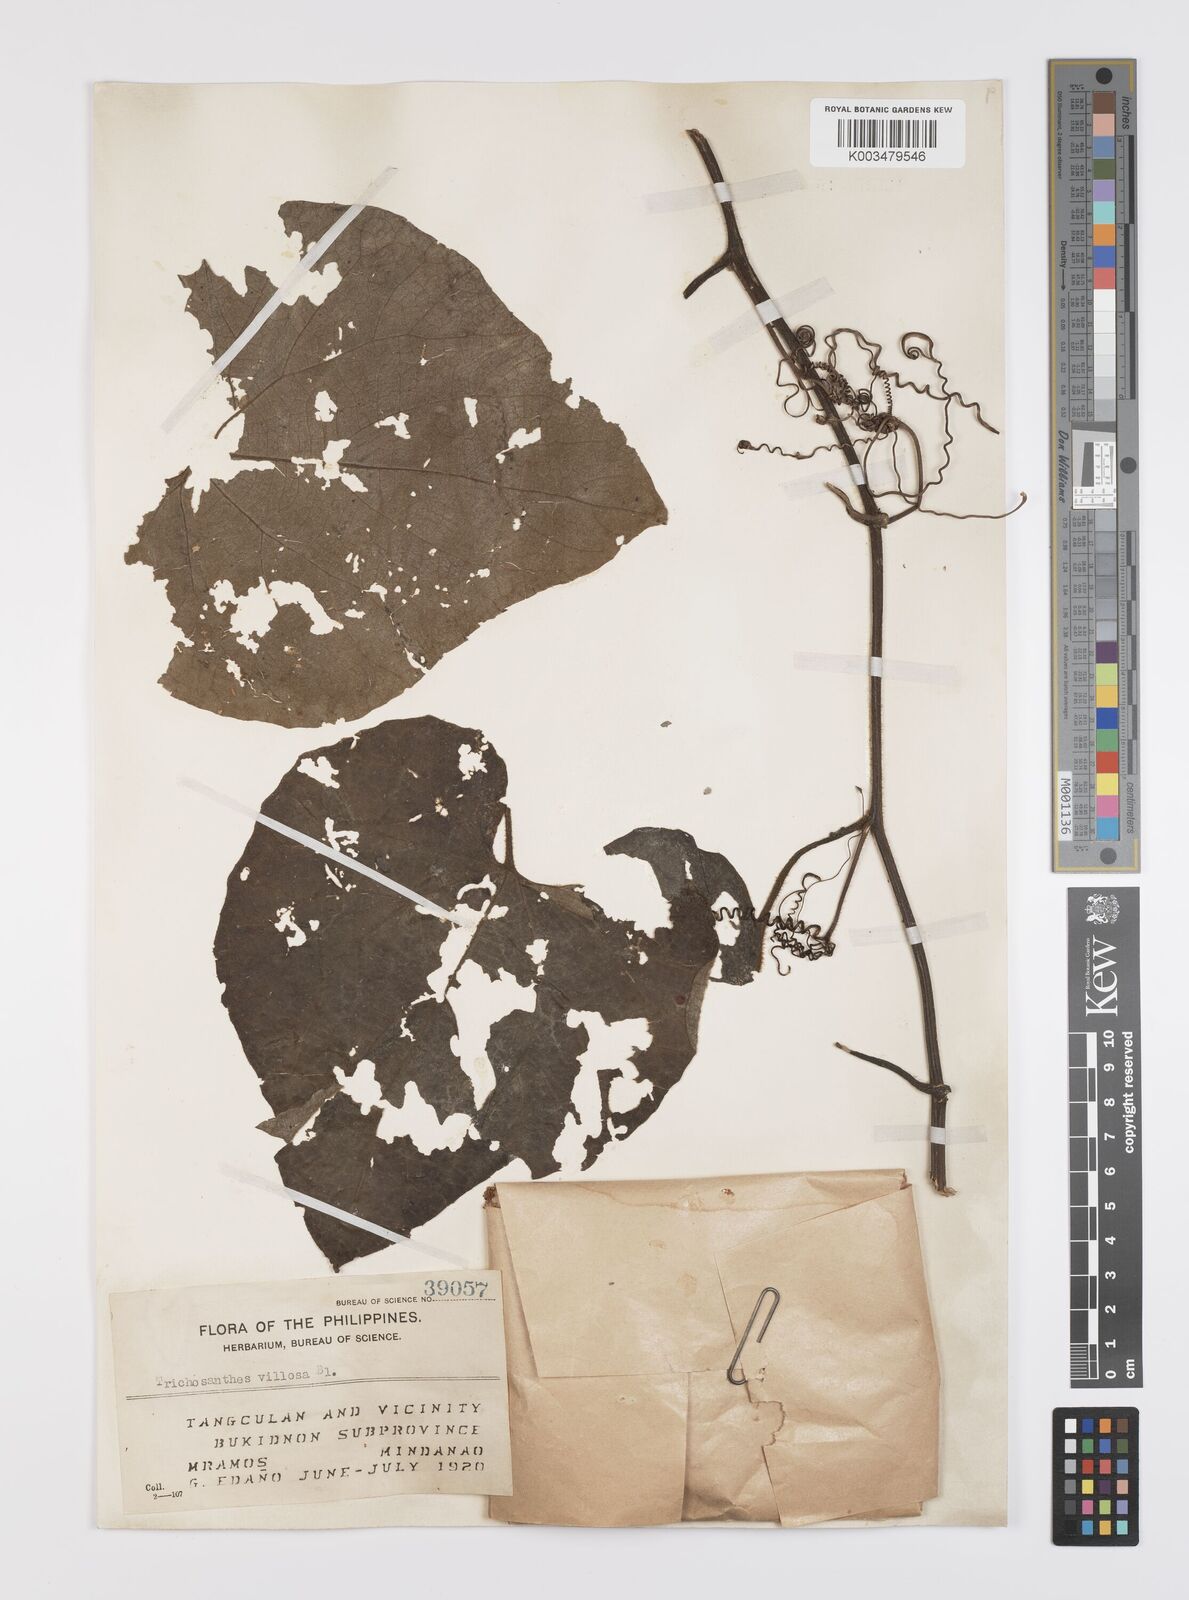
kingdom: Plantae
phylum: Tracheophyta
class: Magnoliopsida
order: Cucurbitales
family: Cucurbitaceae
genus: Trichosanthes
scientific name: Trichosanthes villosa
